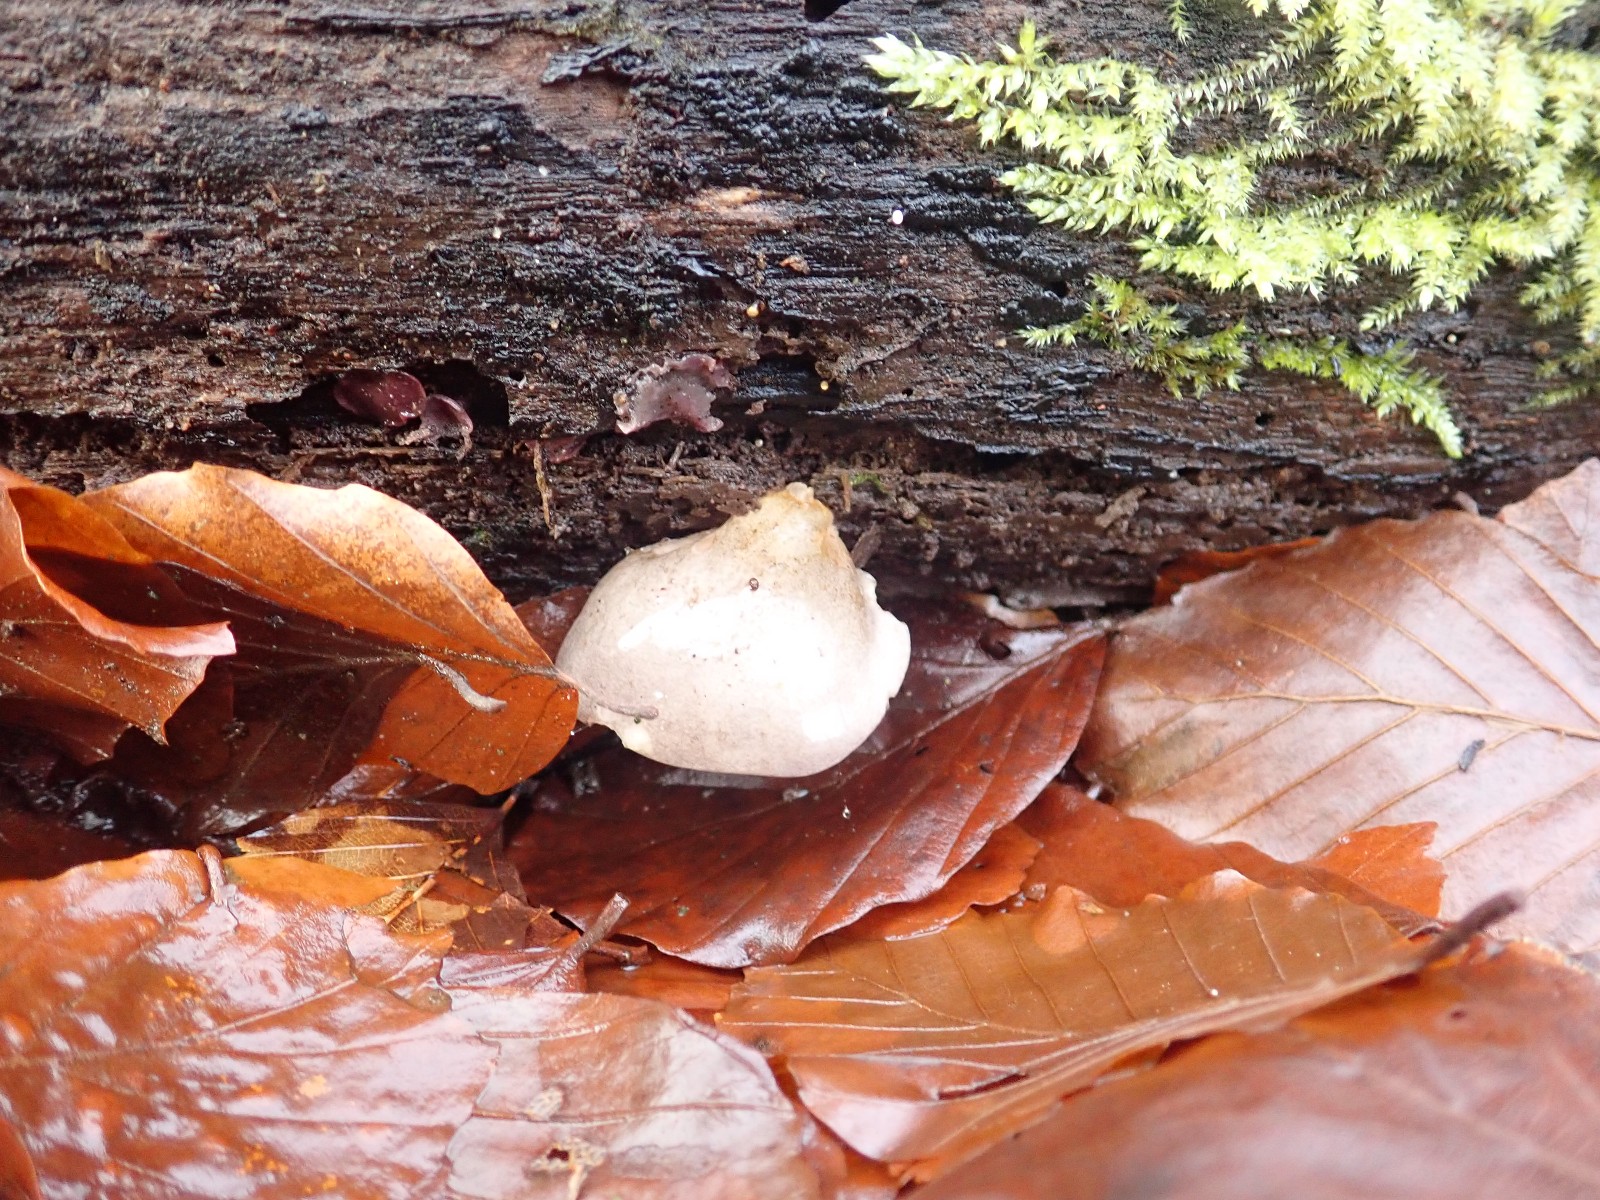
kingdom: Fungi
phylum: Basidiomycota
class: Agaricomycetes
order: Agaricales
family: Sarcomyxaceae
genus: Sarcomyxa
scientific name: Sarcomyxa serotina
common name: gummihat
